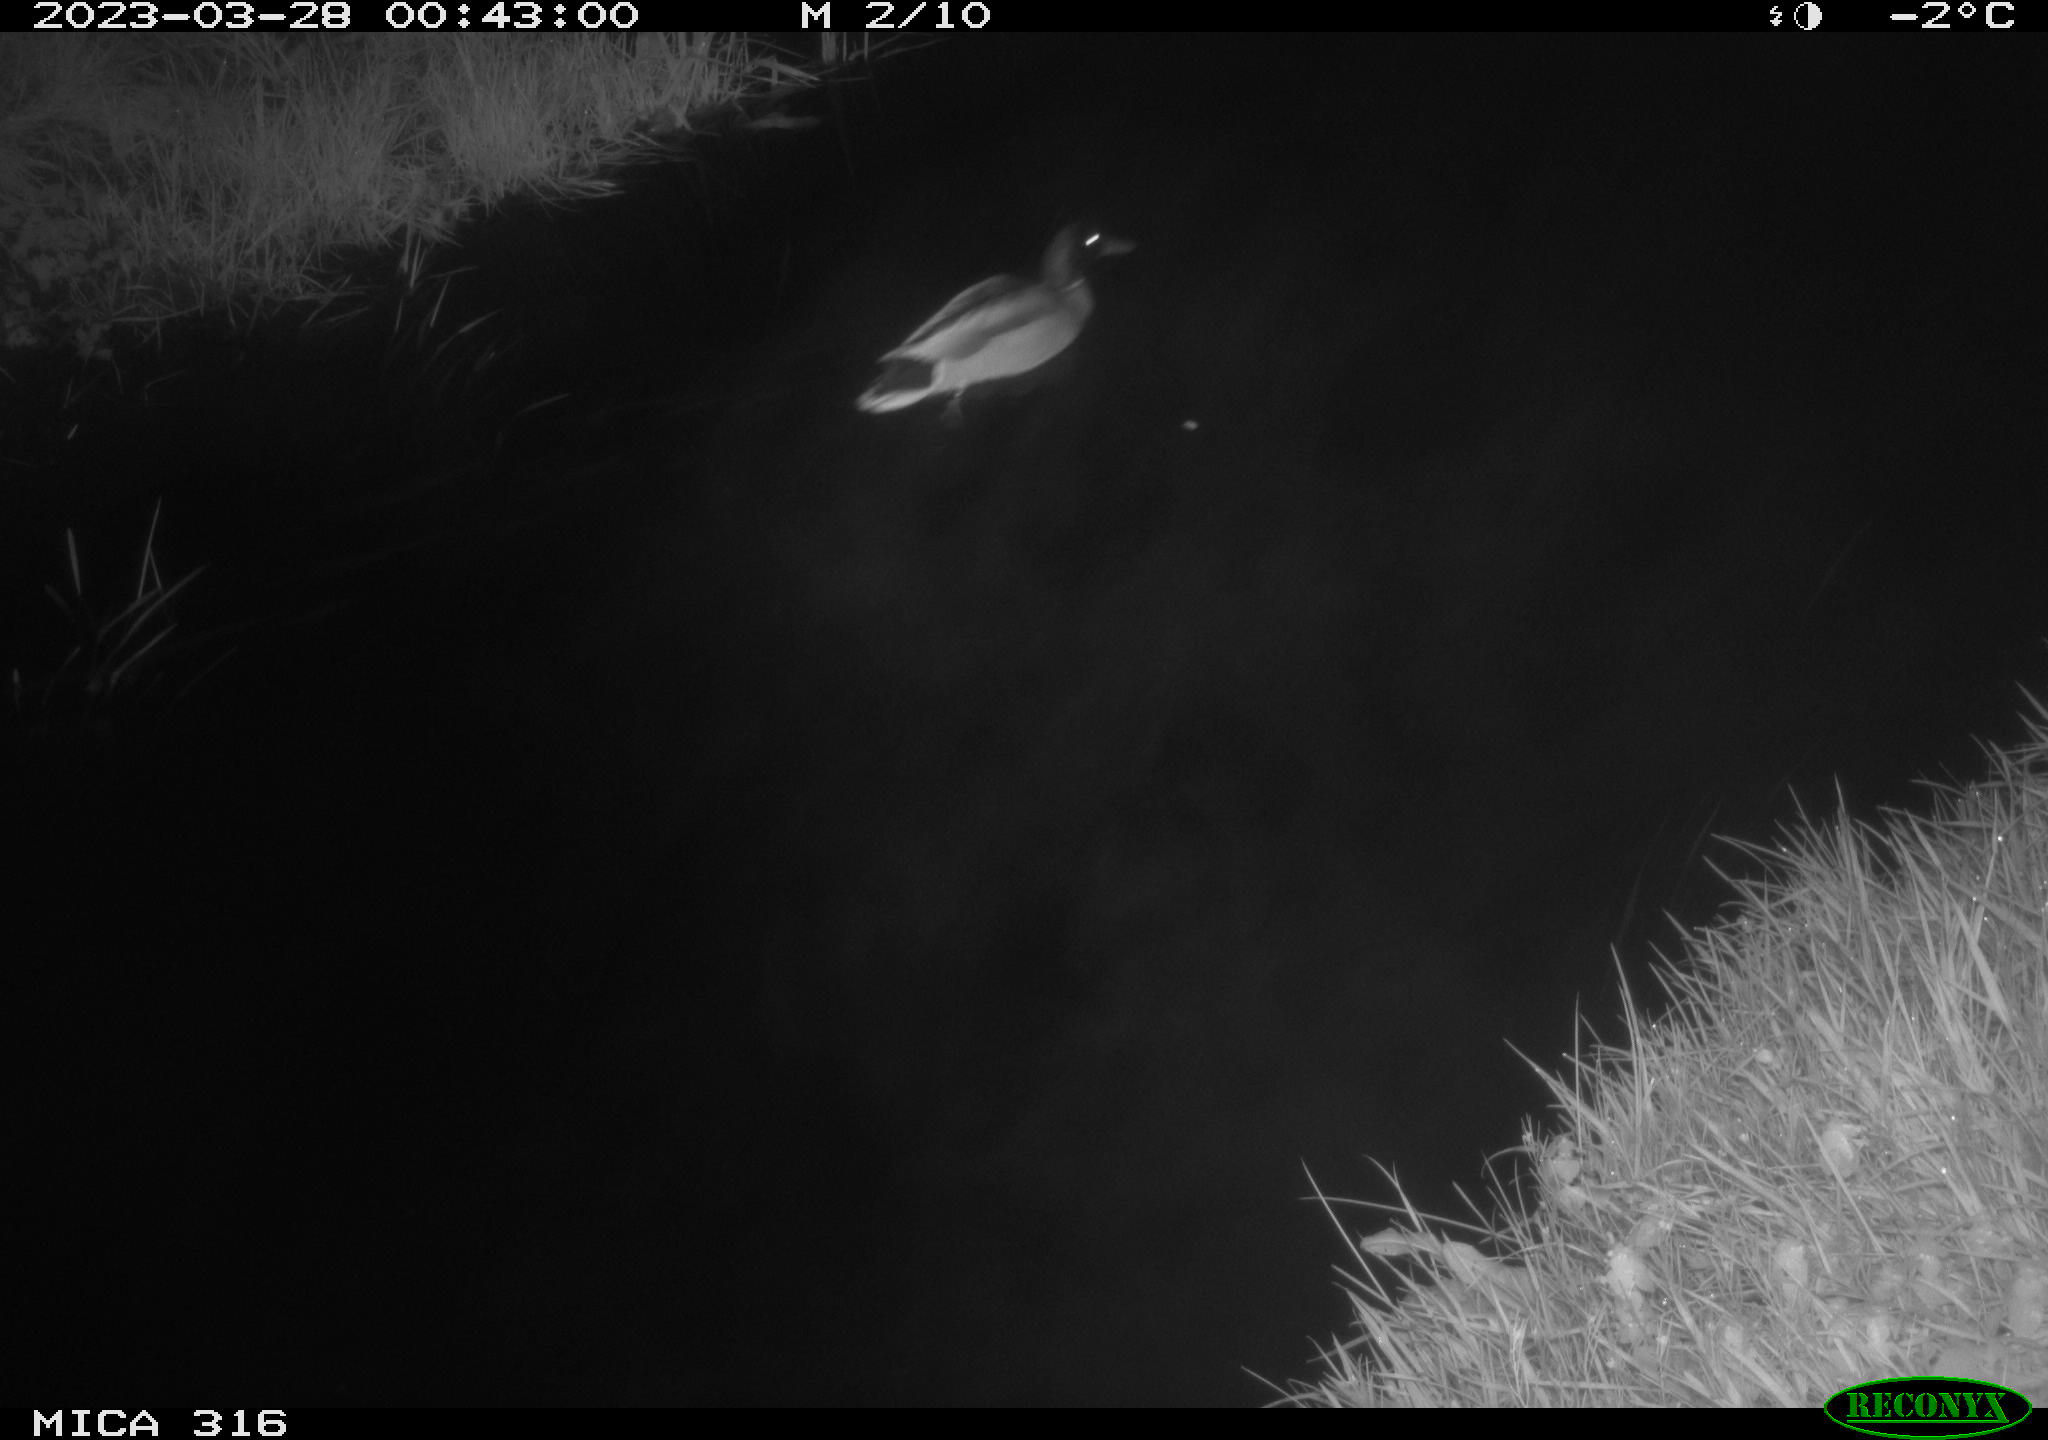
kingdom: Animalia
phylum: Chordata
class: Aves
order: Anseriformes
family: Anatidae
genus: Anas
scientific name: Anas
